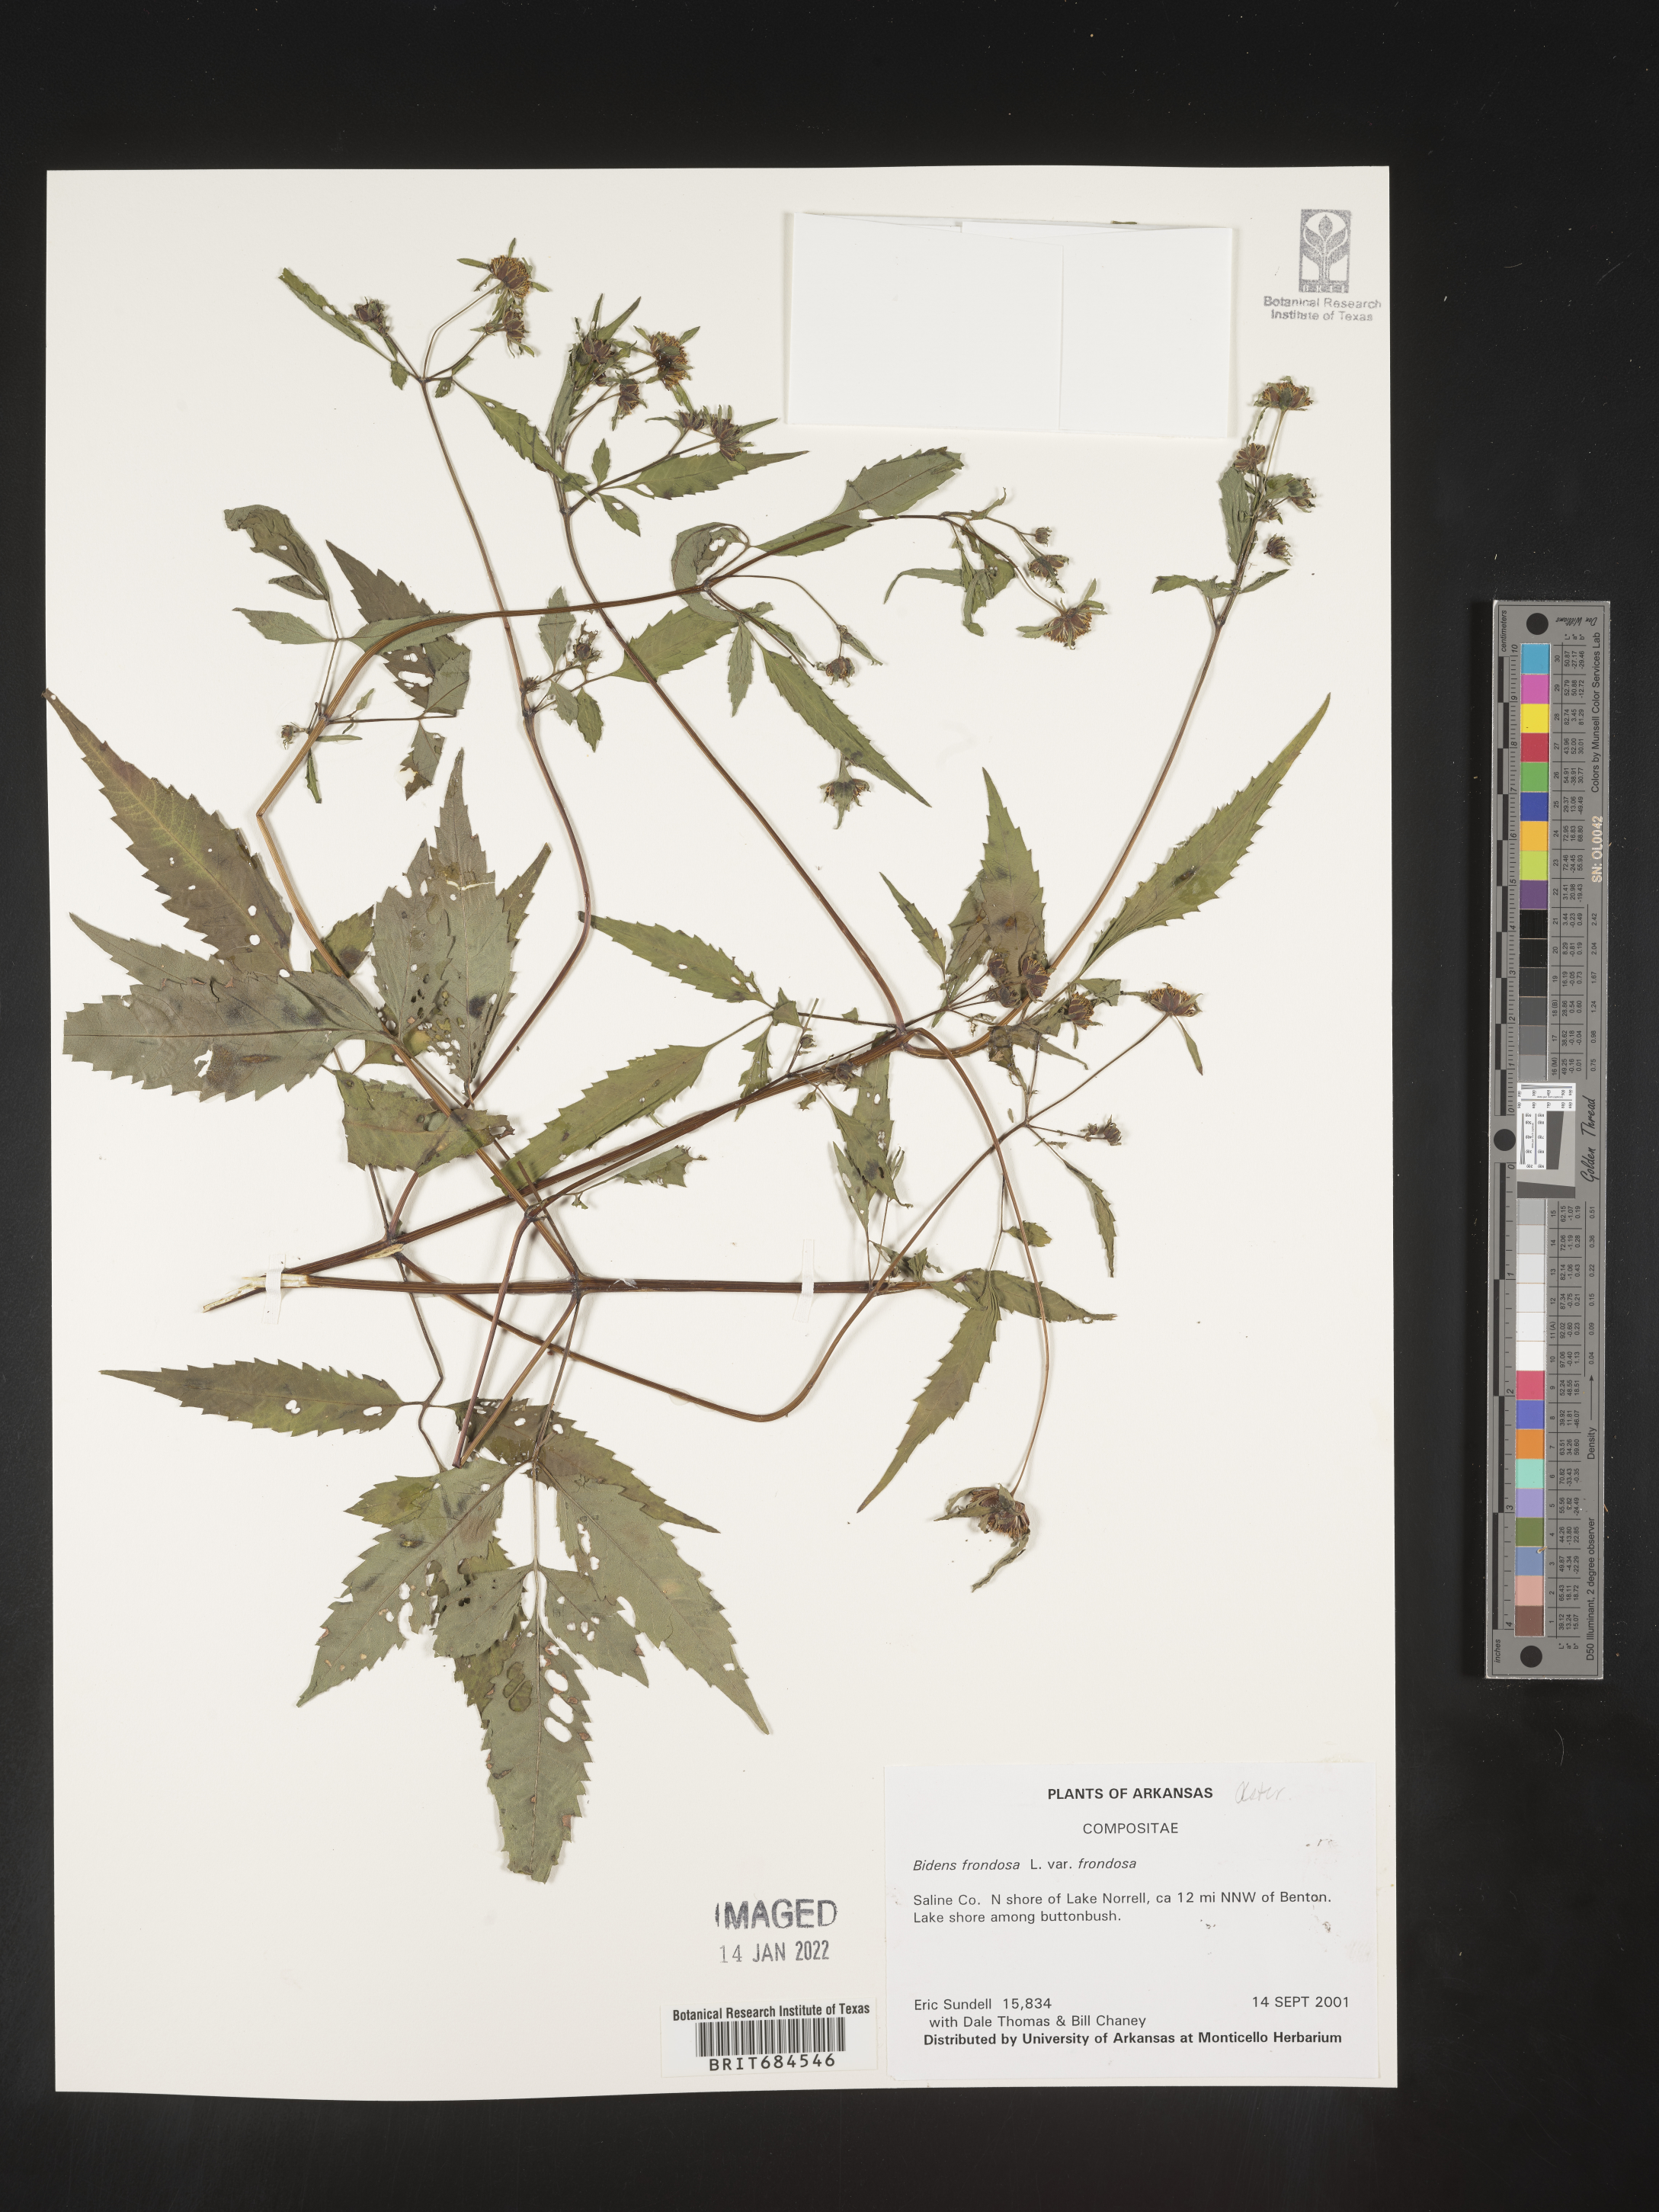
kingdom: Plantae
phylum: Tracheophyta
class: Magnoliopsida
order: Asterales
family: Asteraceae
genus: Bidens
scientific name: Bidens frondosa
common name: Beggarticks
